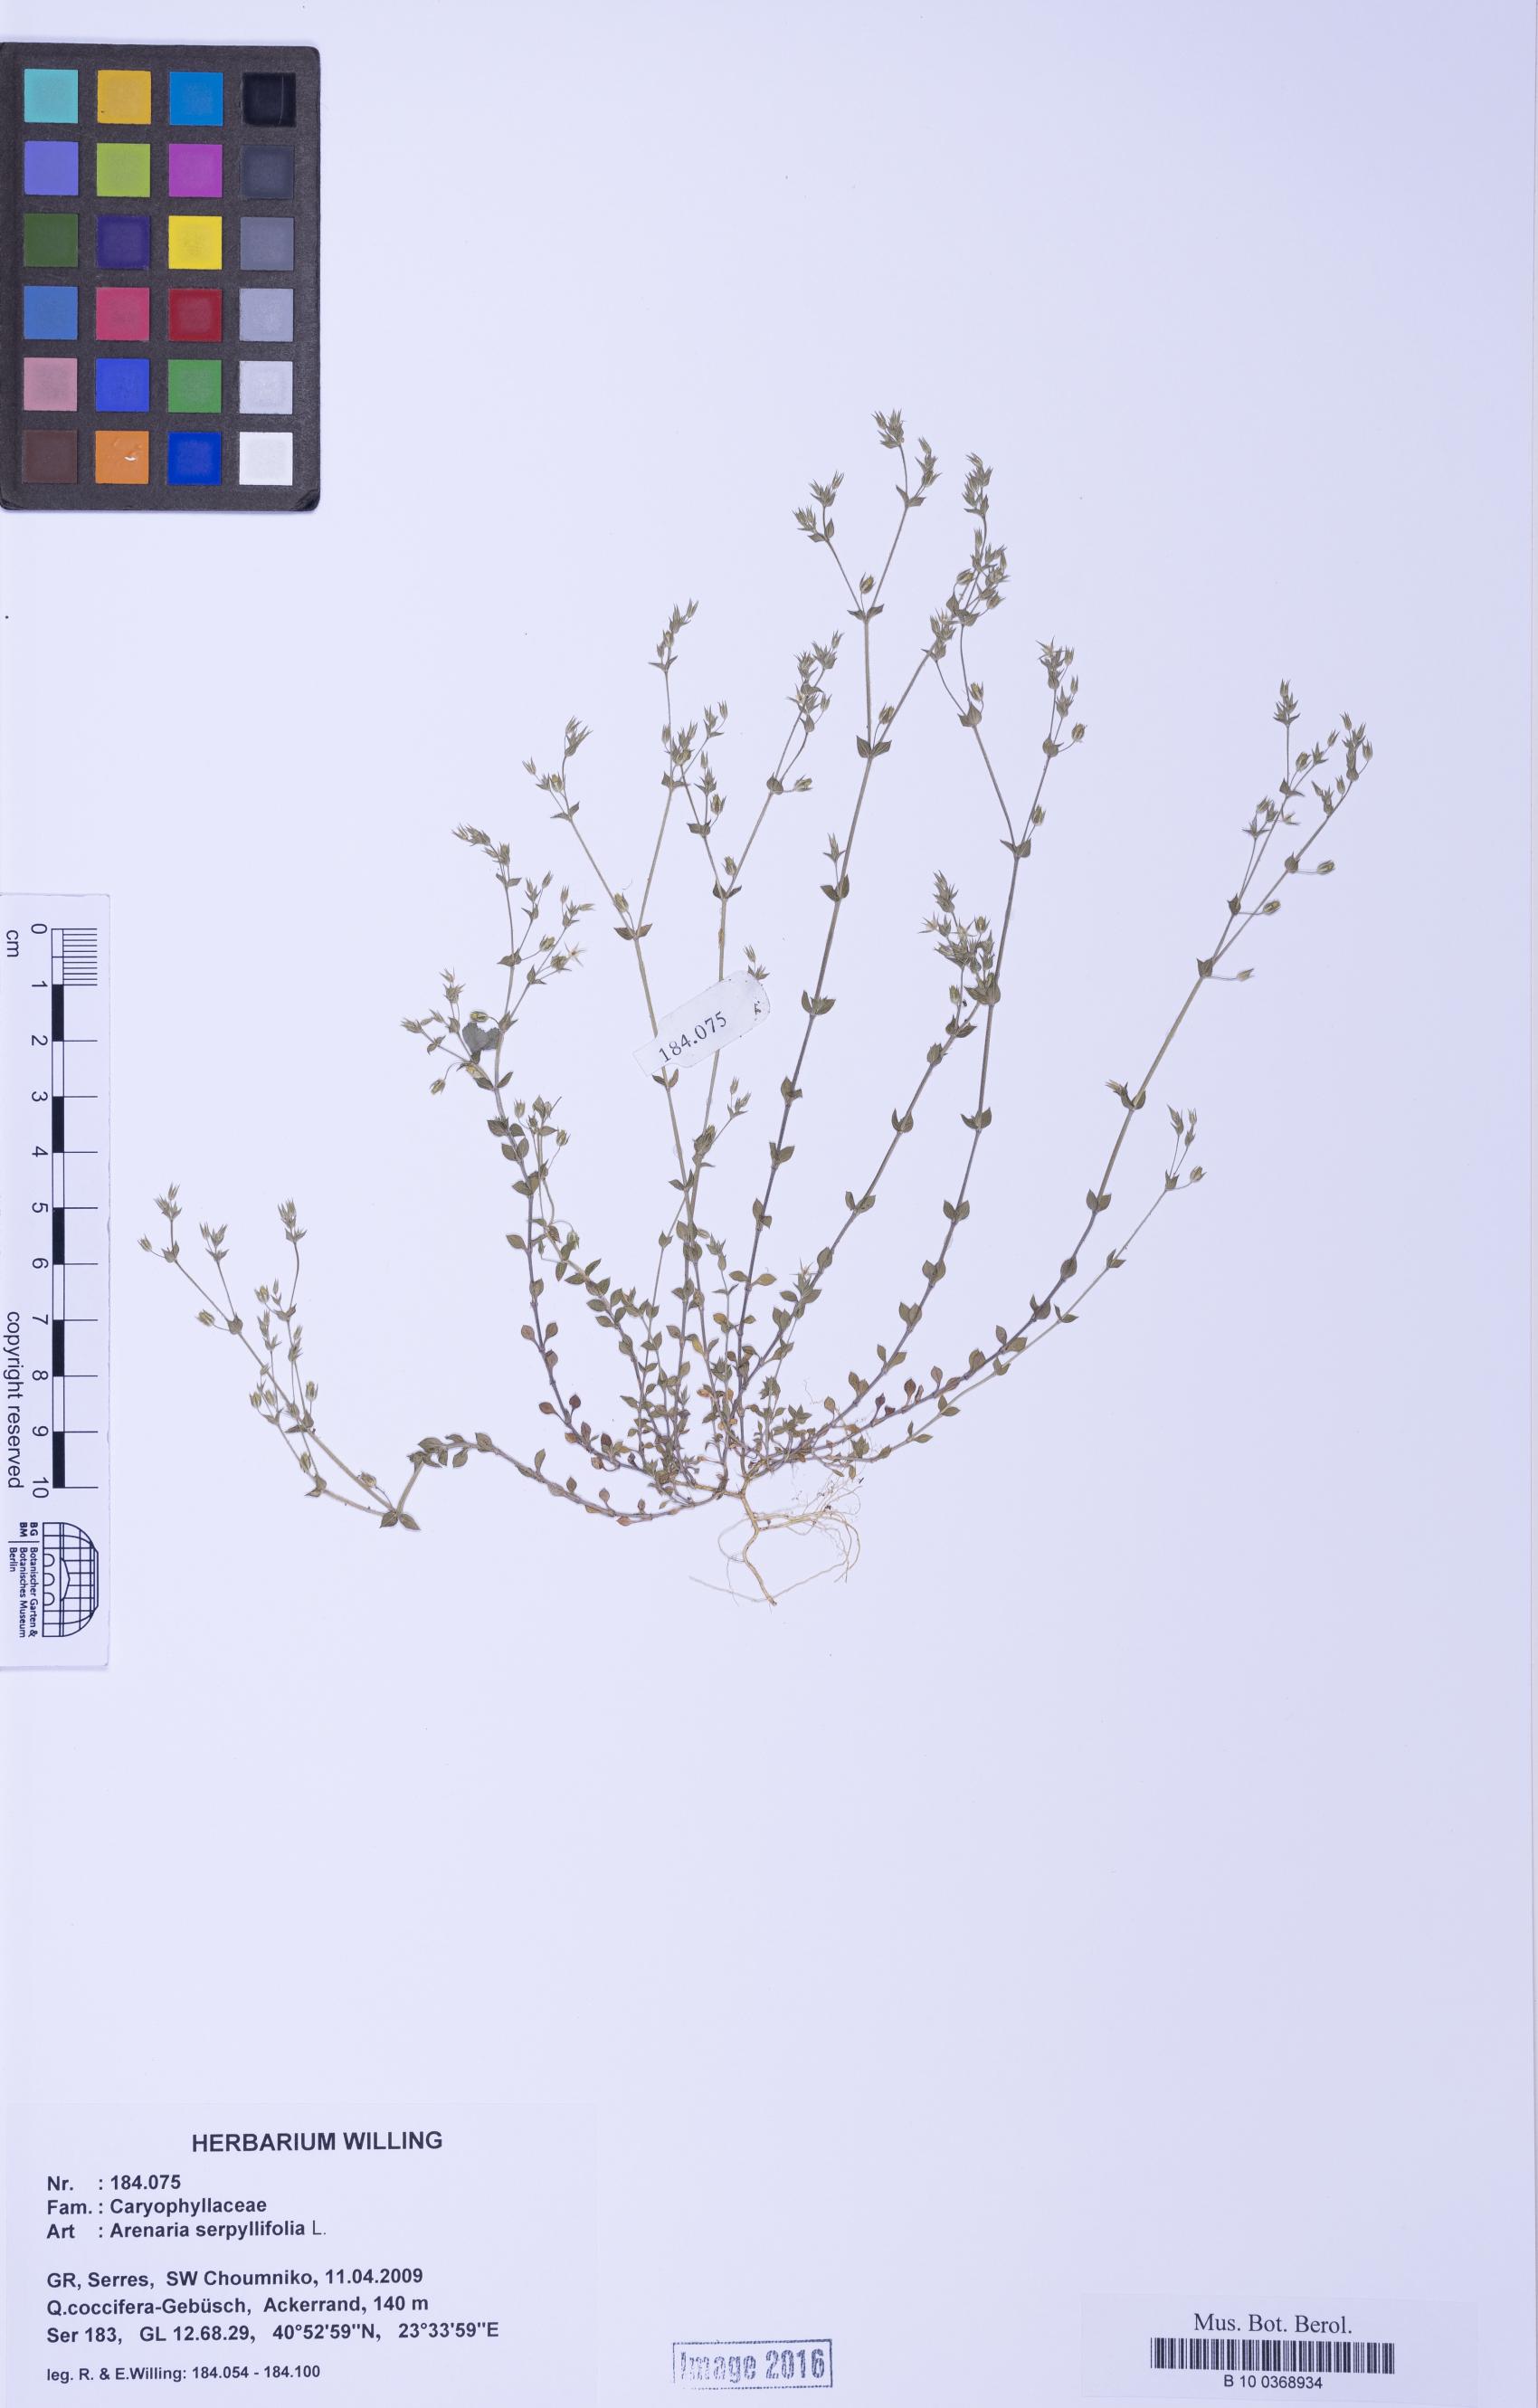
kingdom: Plantae
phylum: Tracheophyta
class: Magnoliopsida
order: Caryophyllales
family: Caryophyllaceae
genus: Arenaria
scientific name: Arenaria serpyllifolia
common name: Thyme-leaved sandwort
